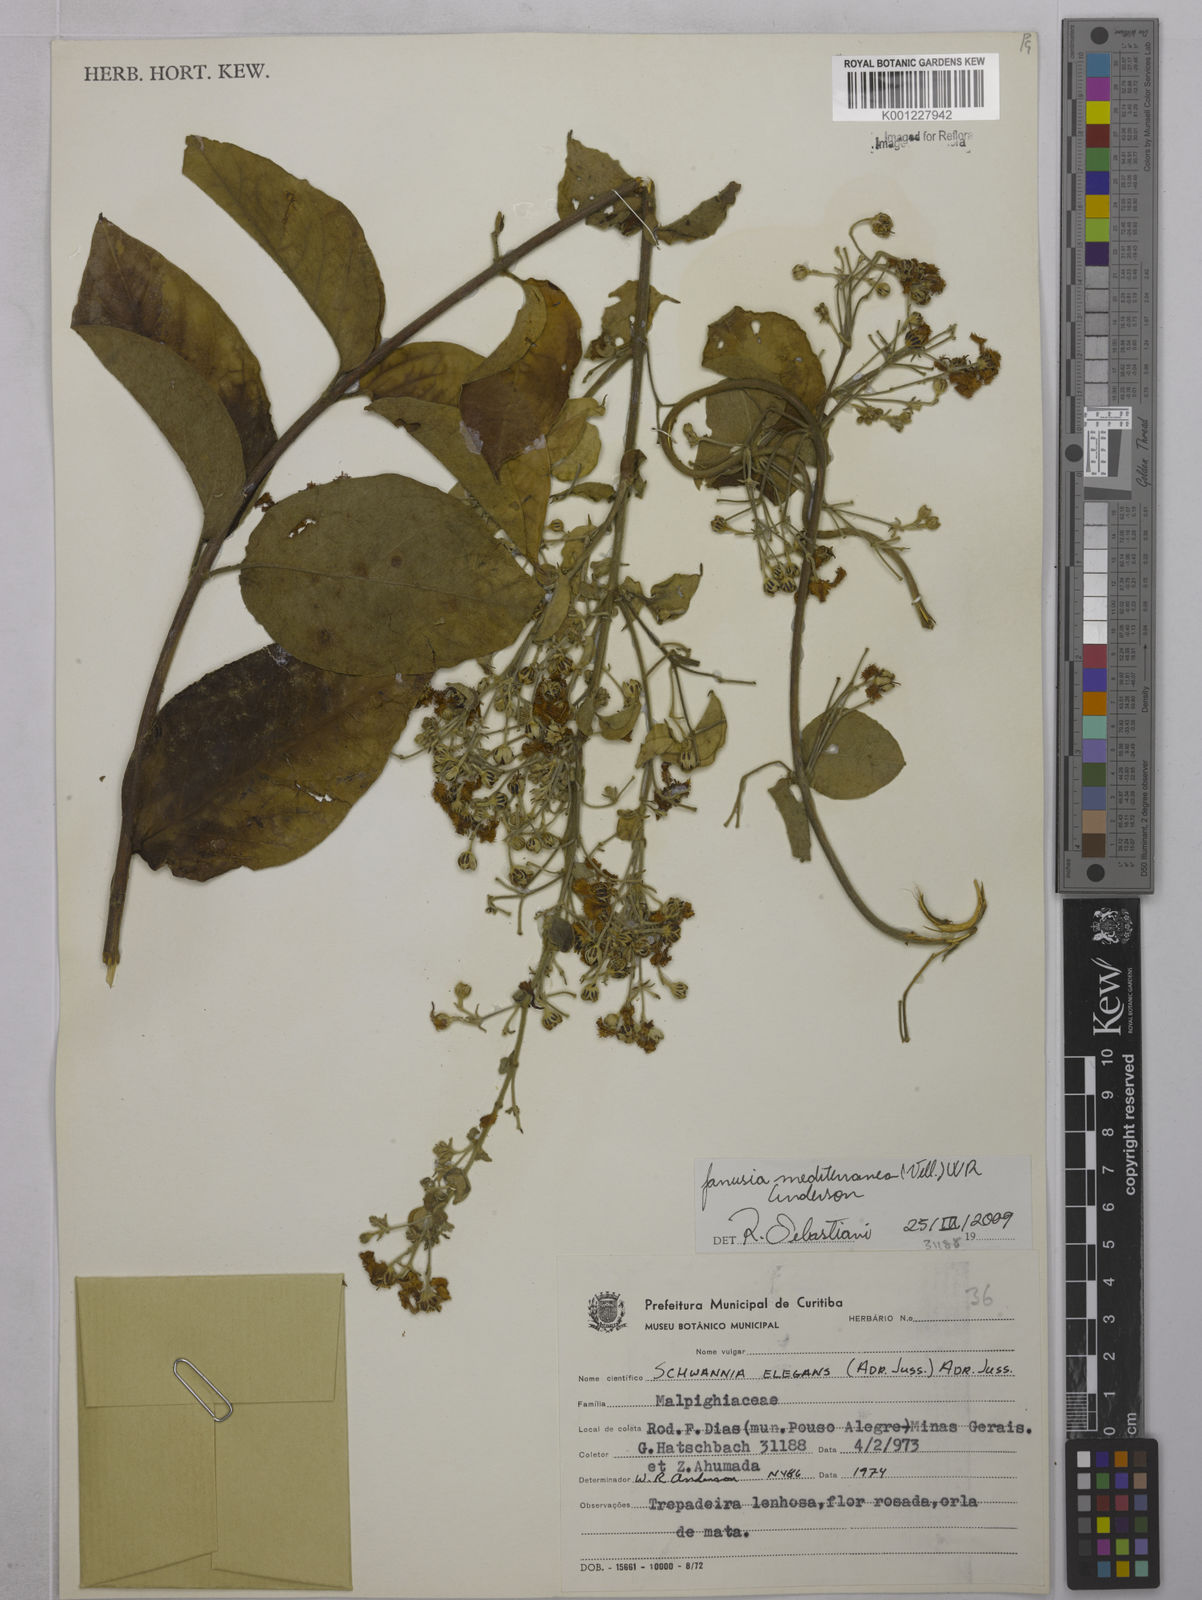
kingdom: Plantae
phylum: Tracheophyta
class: Magnoliopsida
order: Malpighiales
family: Malpighiaceae
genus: Janusia
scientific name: Janusia mediterranea
